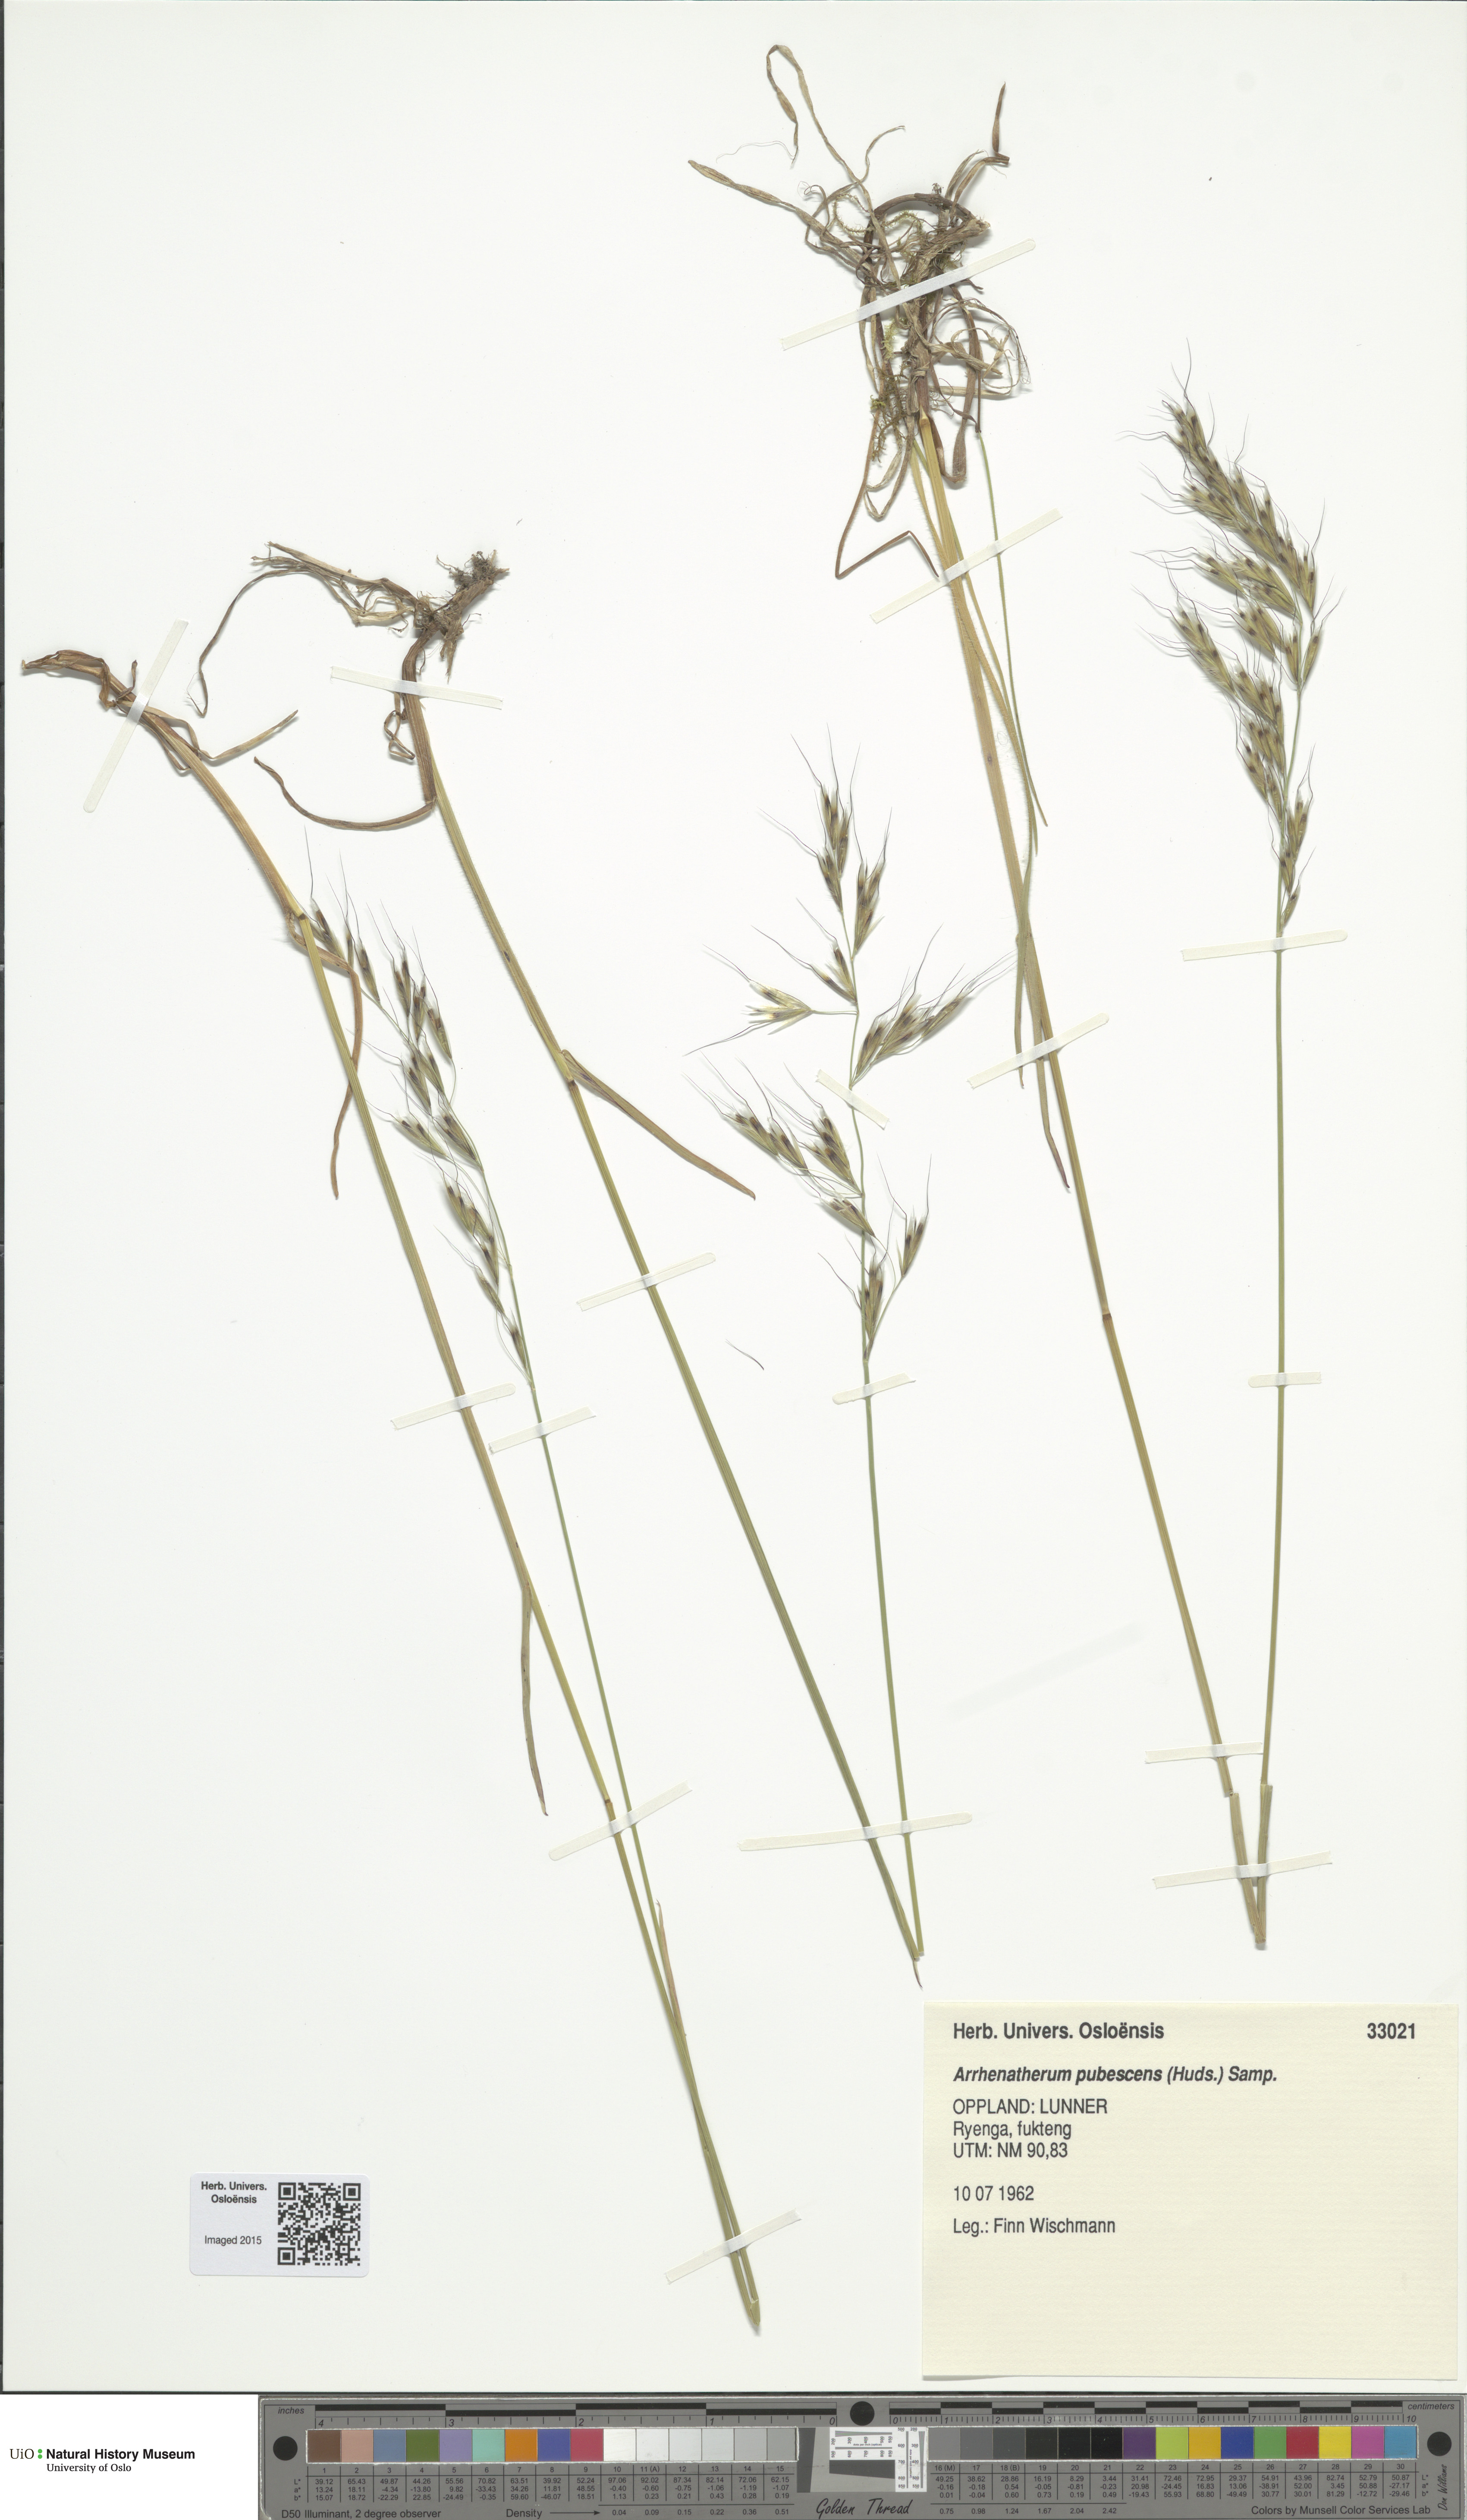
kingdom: Plantae
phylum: Tracheophyta
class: Liliopsida
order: Poales
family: Poaceae
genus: Avenula
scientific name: Avenula pubescens
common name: Downy alpine oatgrass
